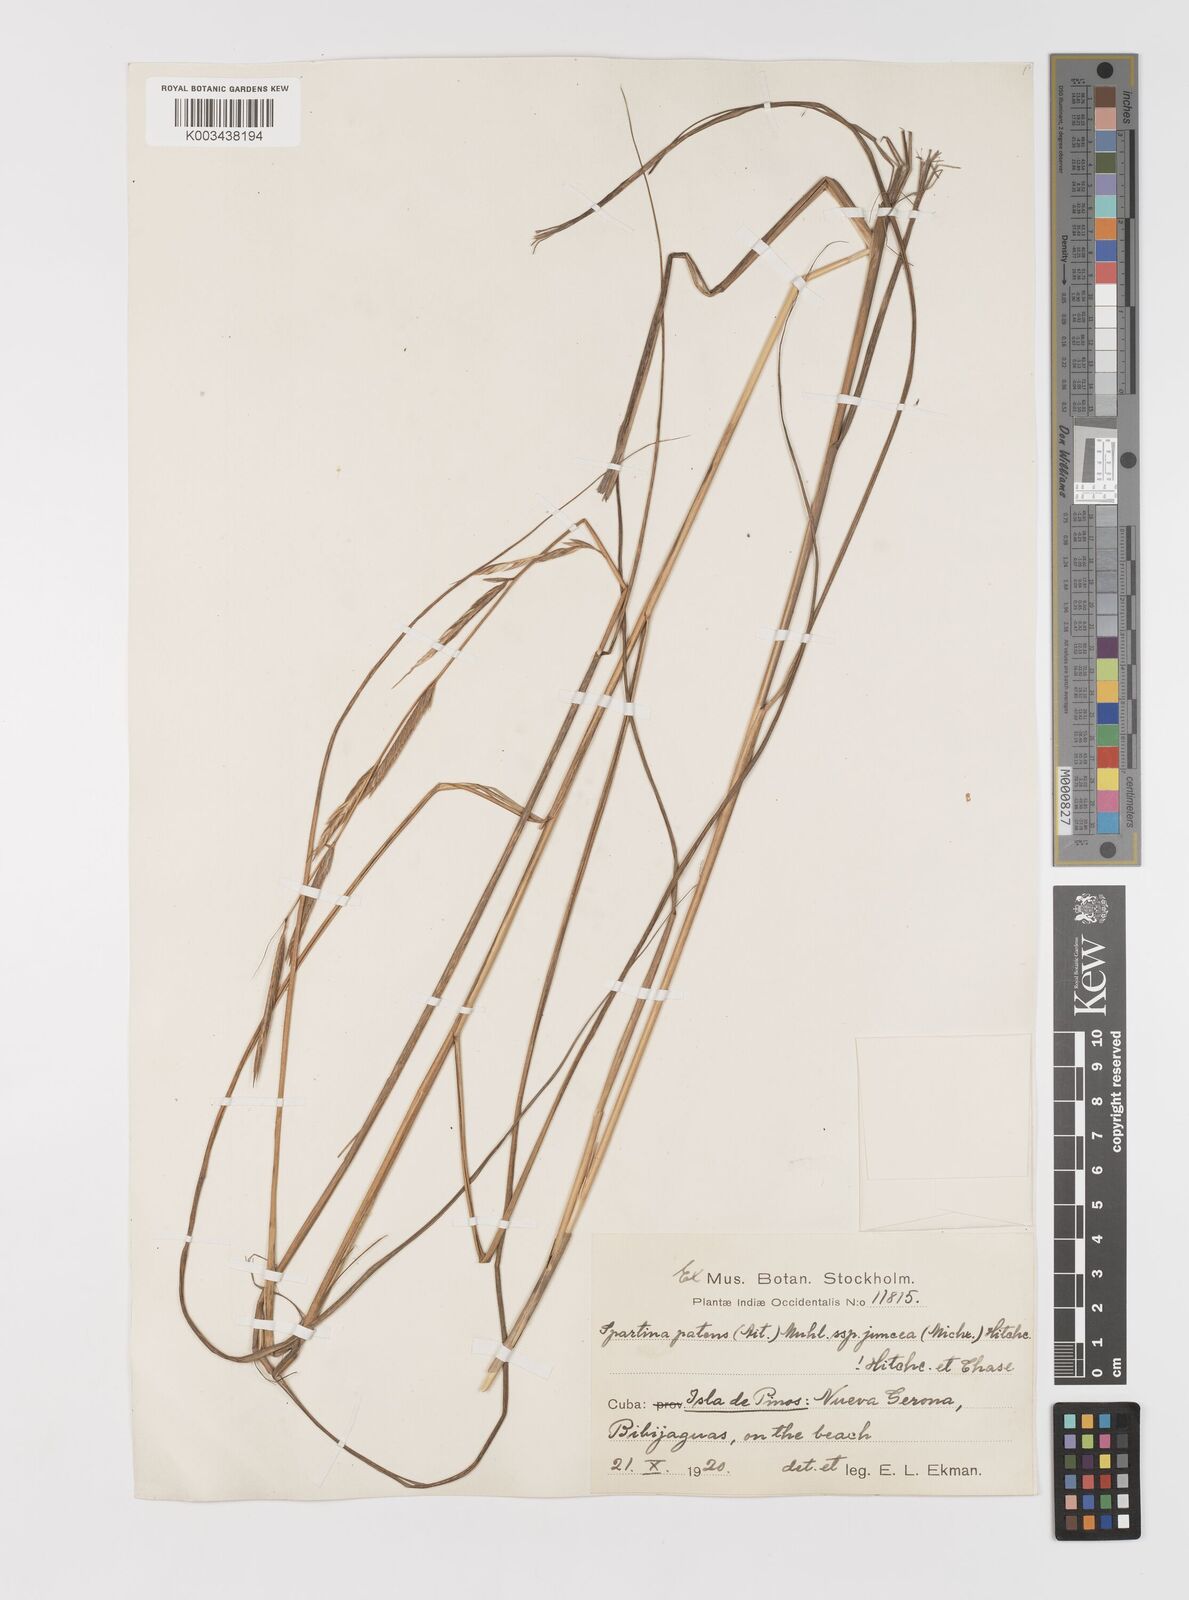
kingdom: Plantae
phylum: Tracheophyta
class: Liliopsida
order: Poales
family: Poaceae
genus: Sporobolus
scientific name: Sporobolus pumilus
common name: Highwater grass
